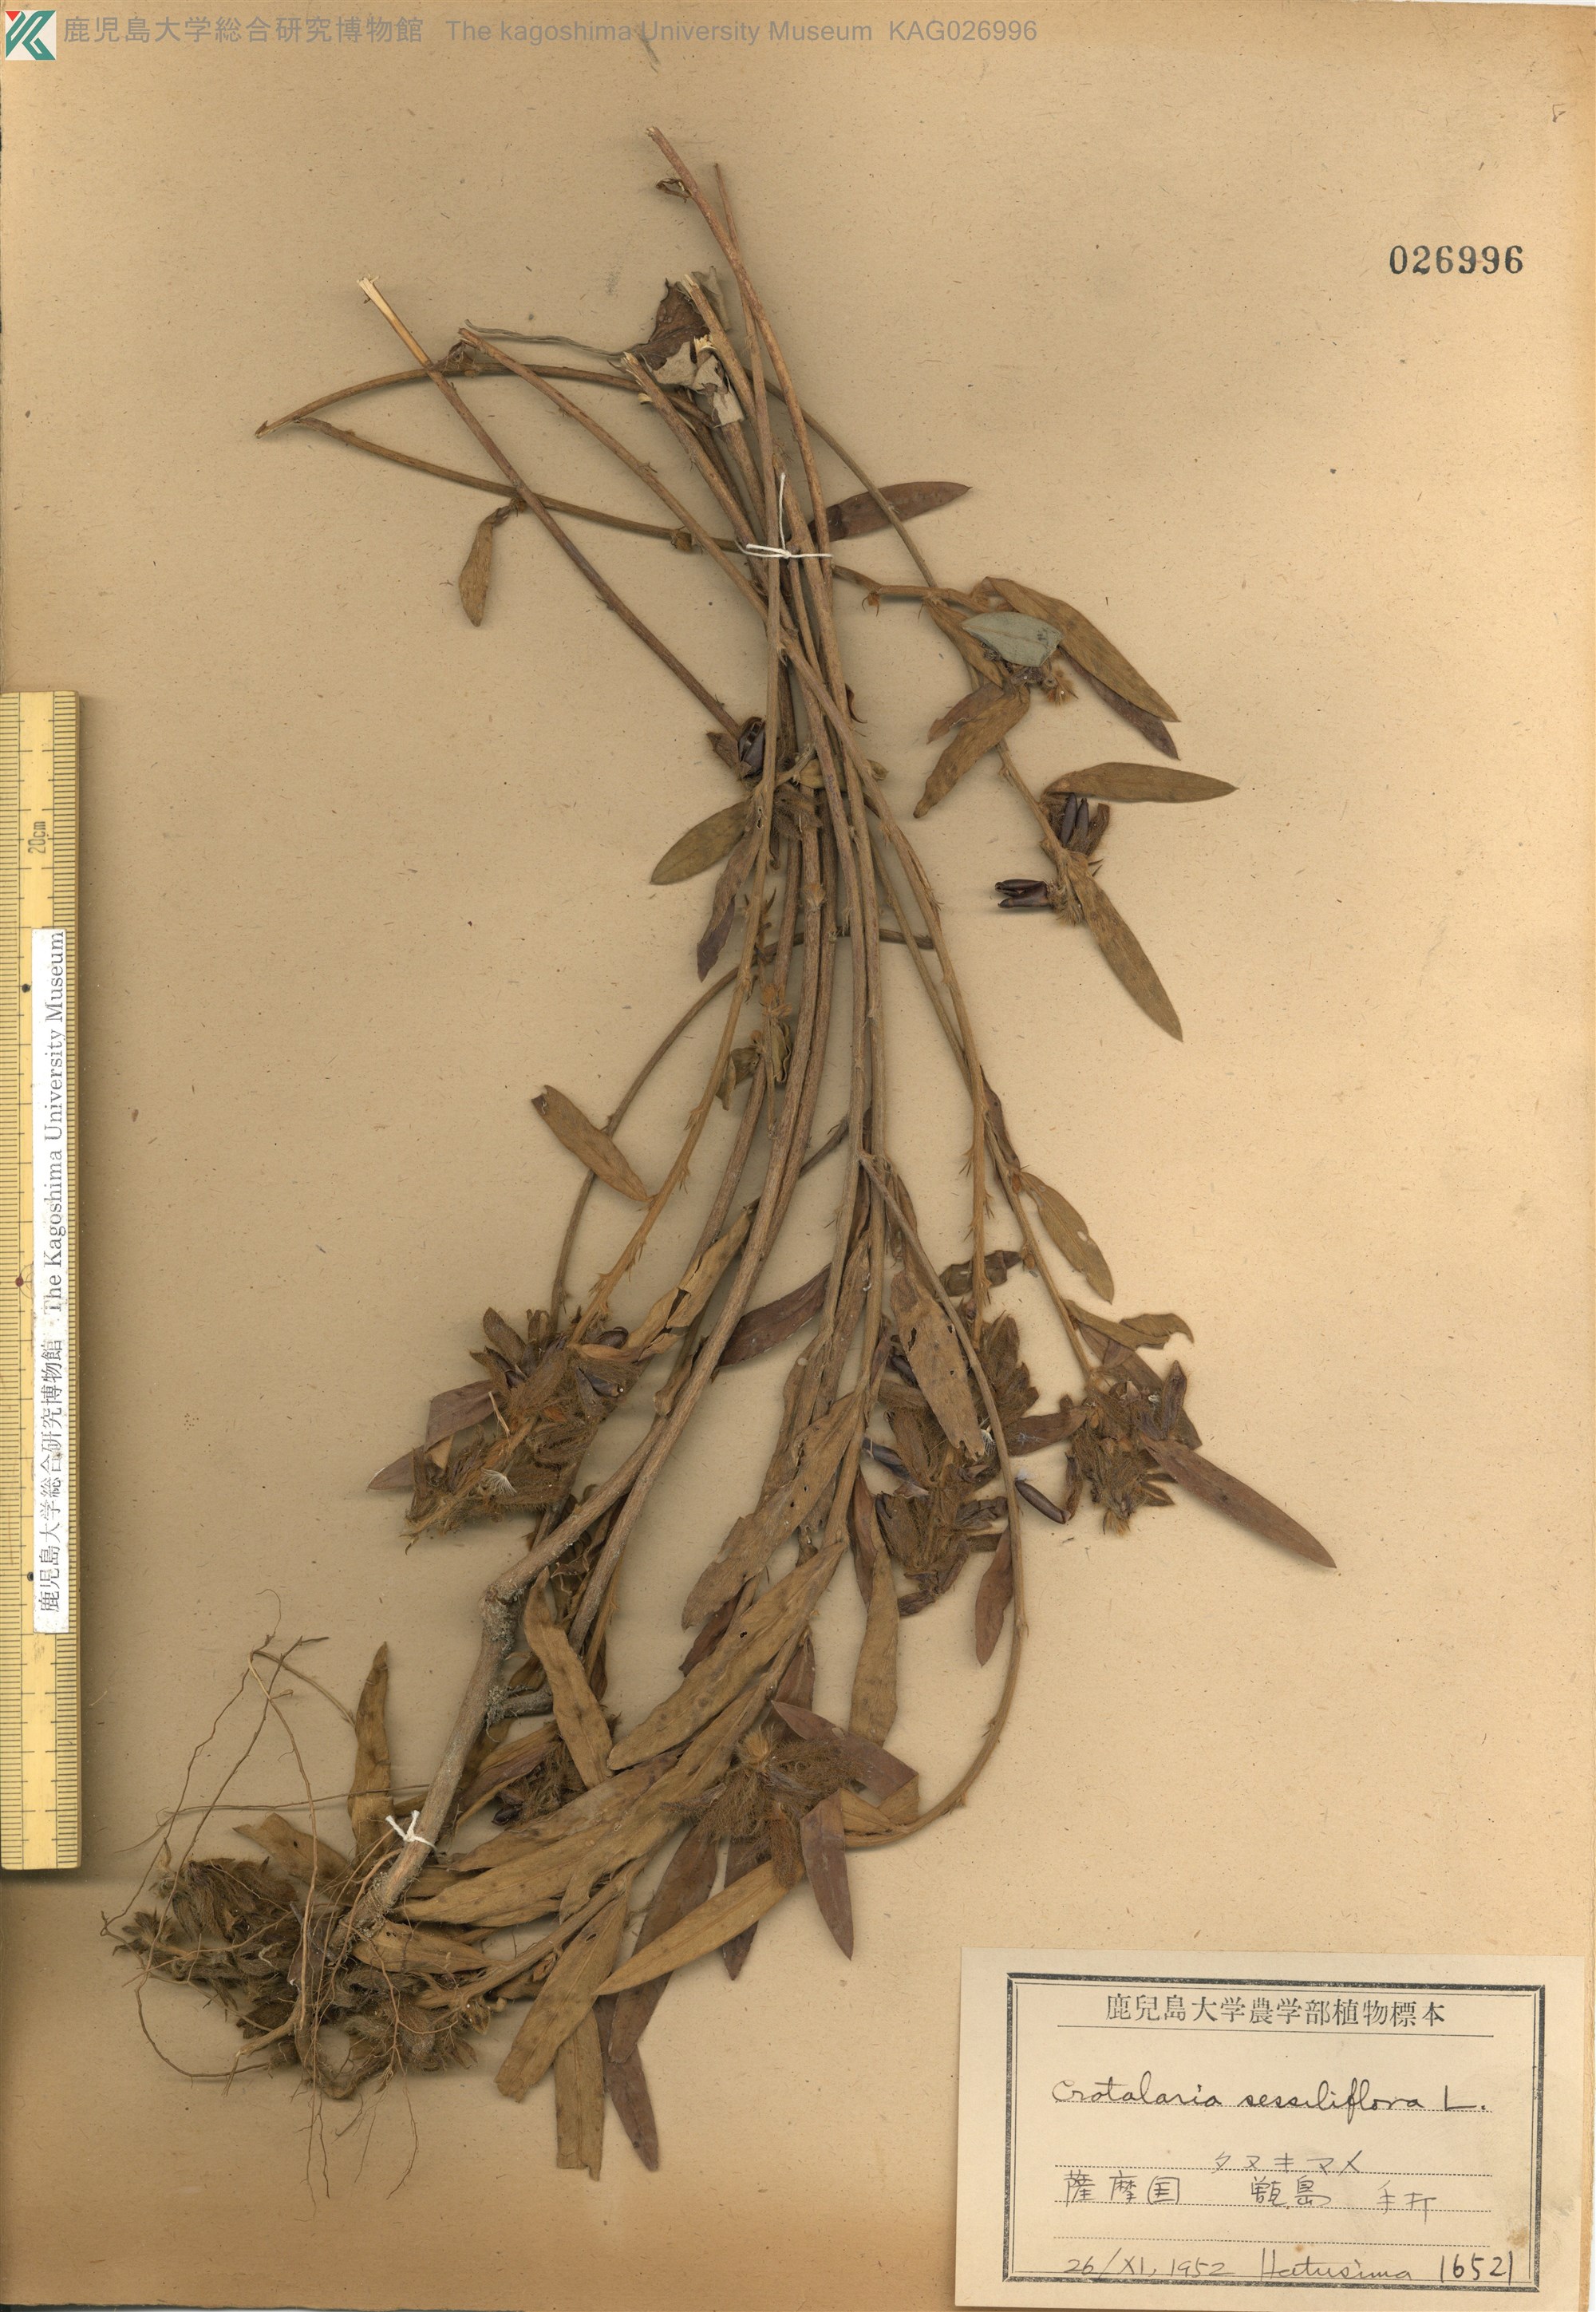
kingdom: Plantae
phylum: Tracheophyta
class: Magnoliopsida
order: Fabales
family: Fabaceae
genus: Crotalaria
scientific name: Crotalaria sessiliflora
